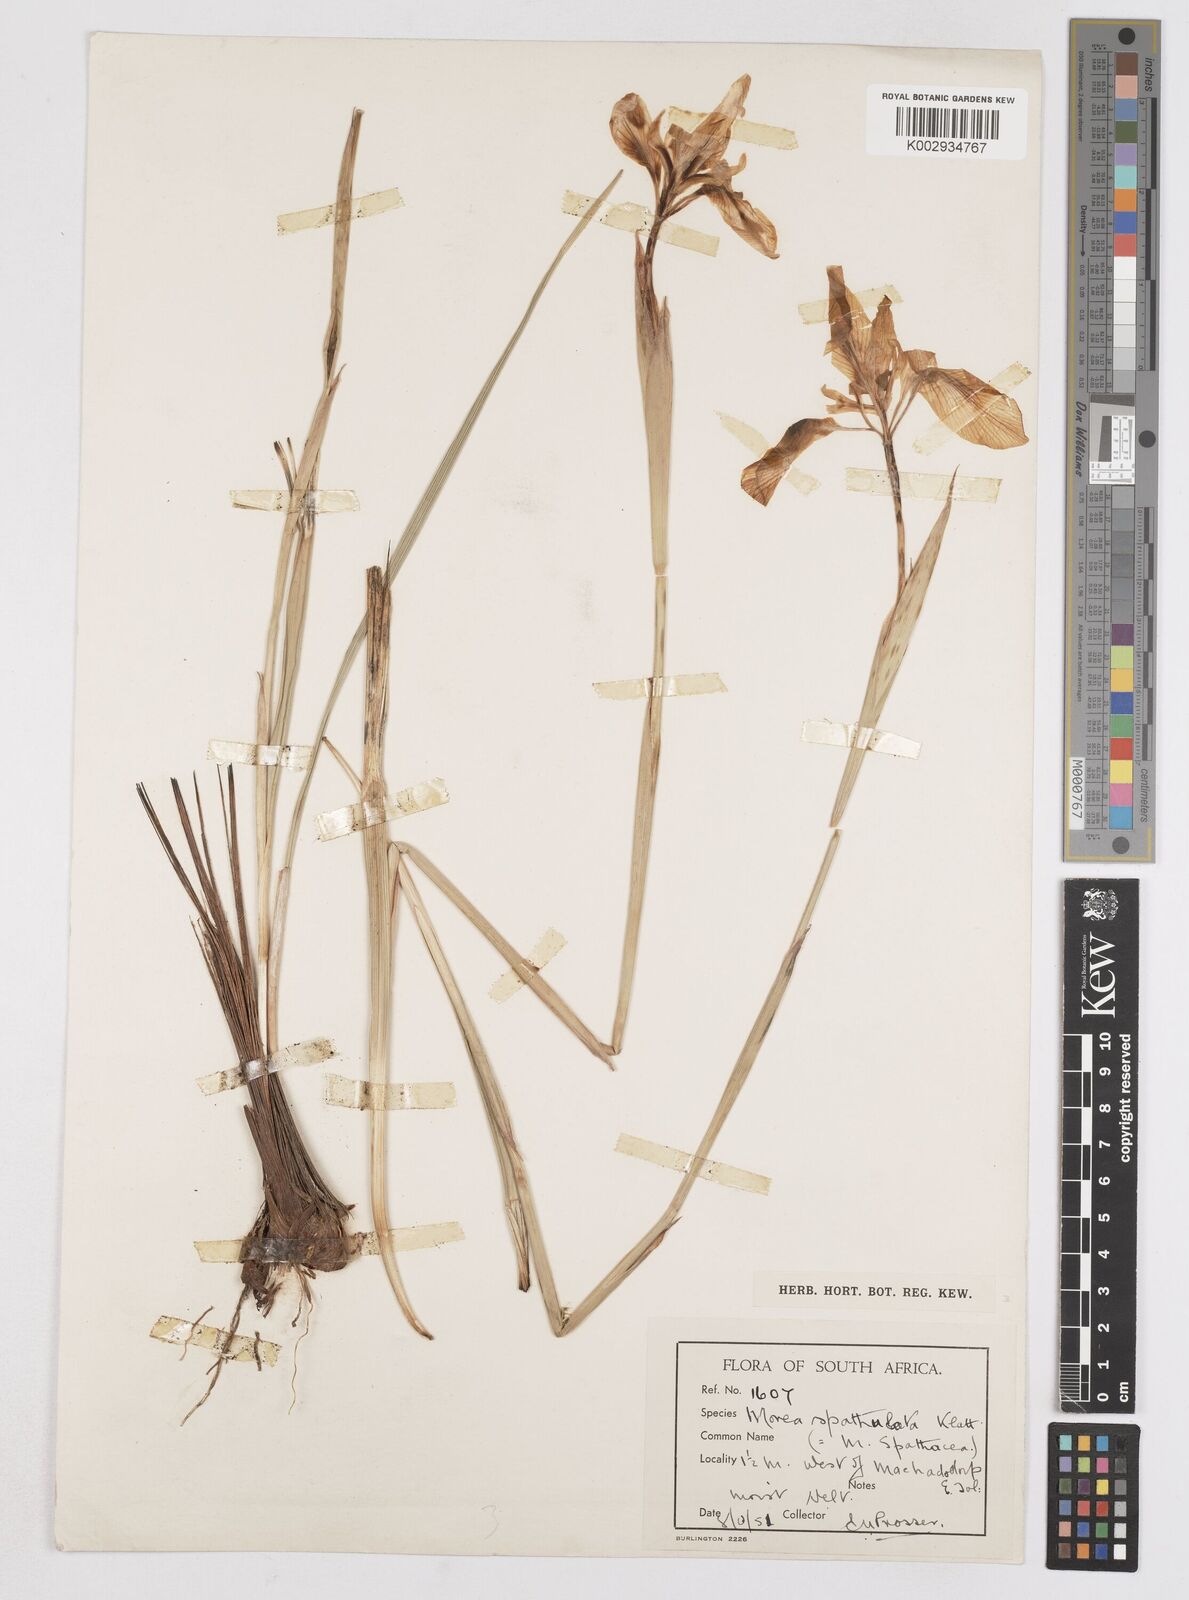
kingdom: Plantae
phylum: Tracheophyta
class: Liliopsida
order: Asparagales
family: Iridaceae
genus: Moraea
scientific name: Moraea spathulata
